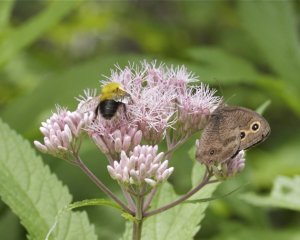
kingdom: Animalia
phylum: Arthropoda
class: Insecta
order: Lepidoptera
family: Nymphalidae
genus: Cercyonis
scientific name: Cercyonis pegala
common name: Common Wood-Nymph
